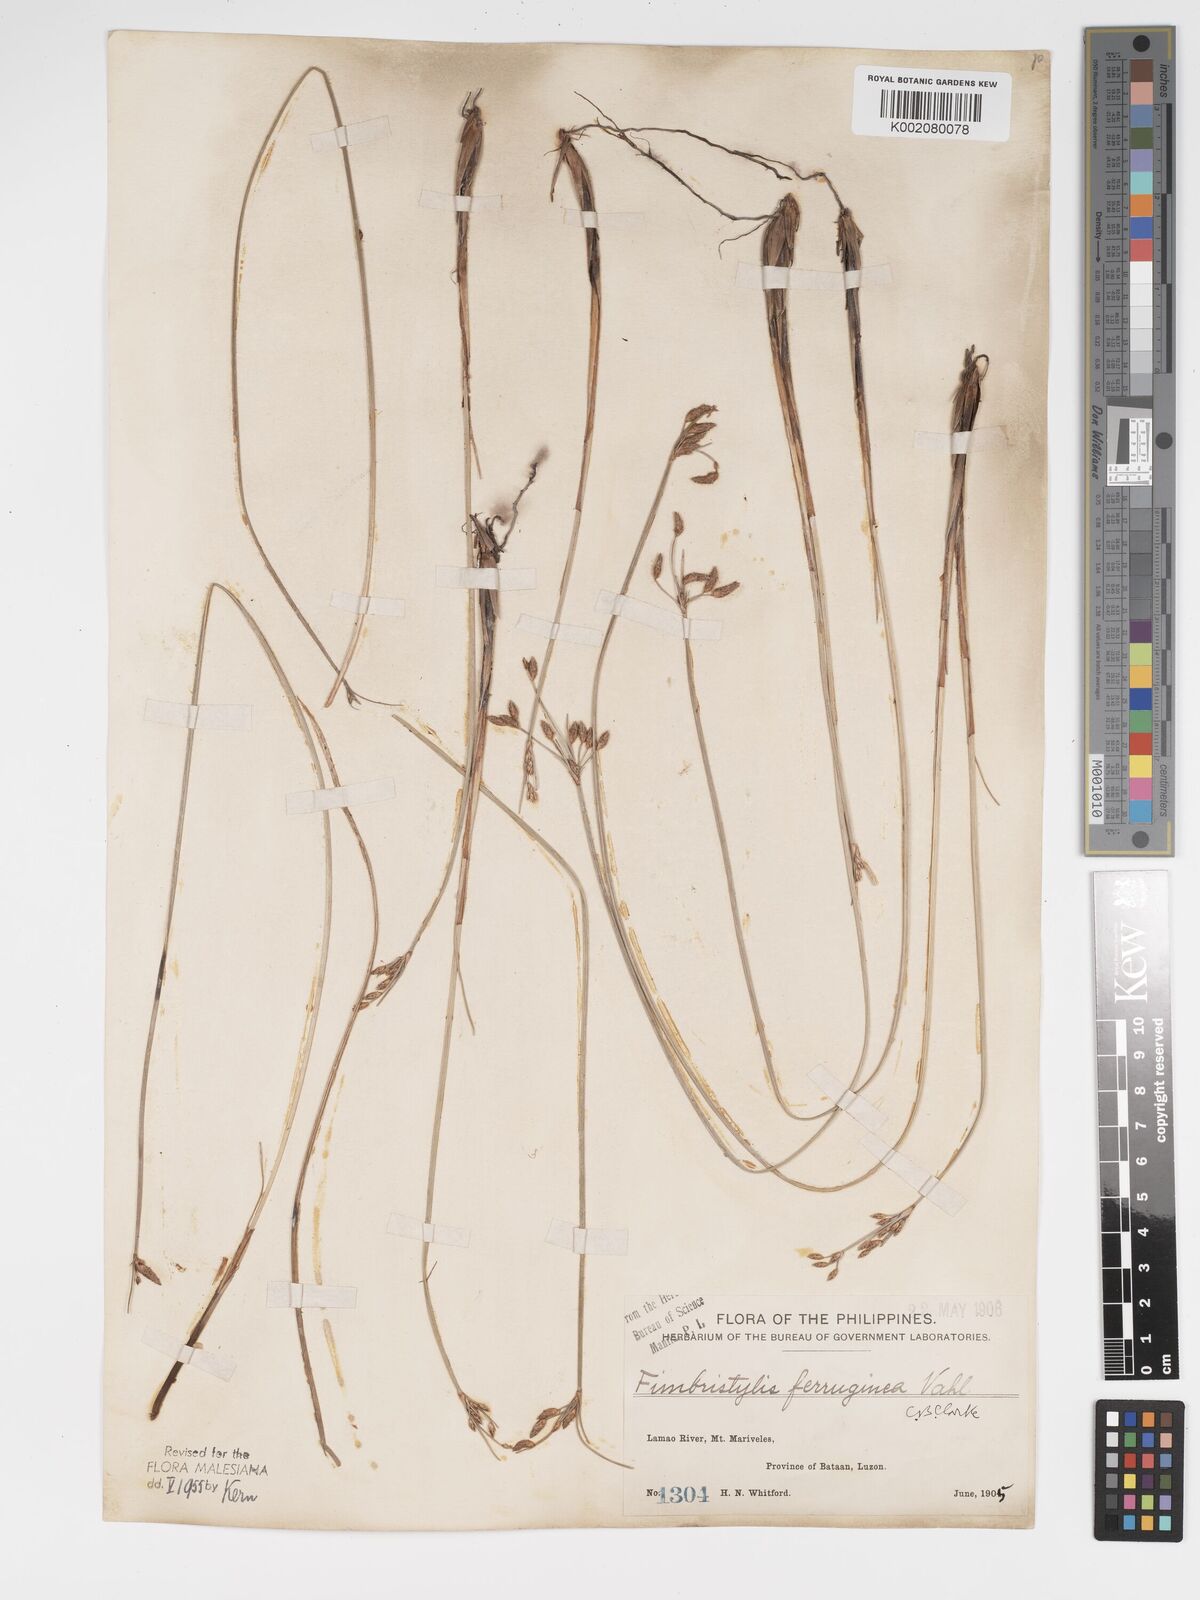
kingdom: Plantae
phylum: Tracheophyta
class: Liliopsida
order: Poales
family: Cyperaceae
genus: Fimbristylis
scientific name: Fimbristylis ferruginea
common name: West indian fimbry
